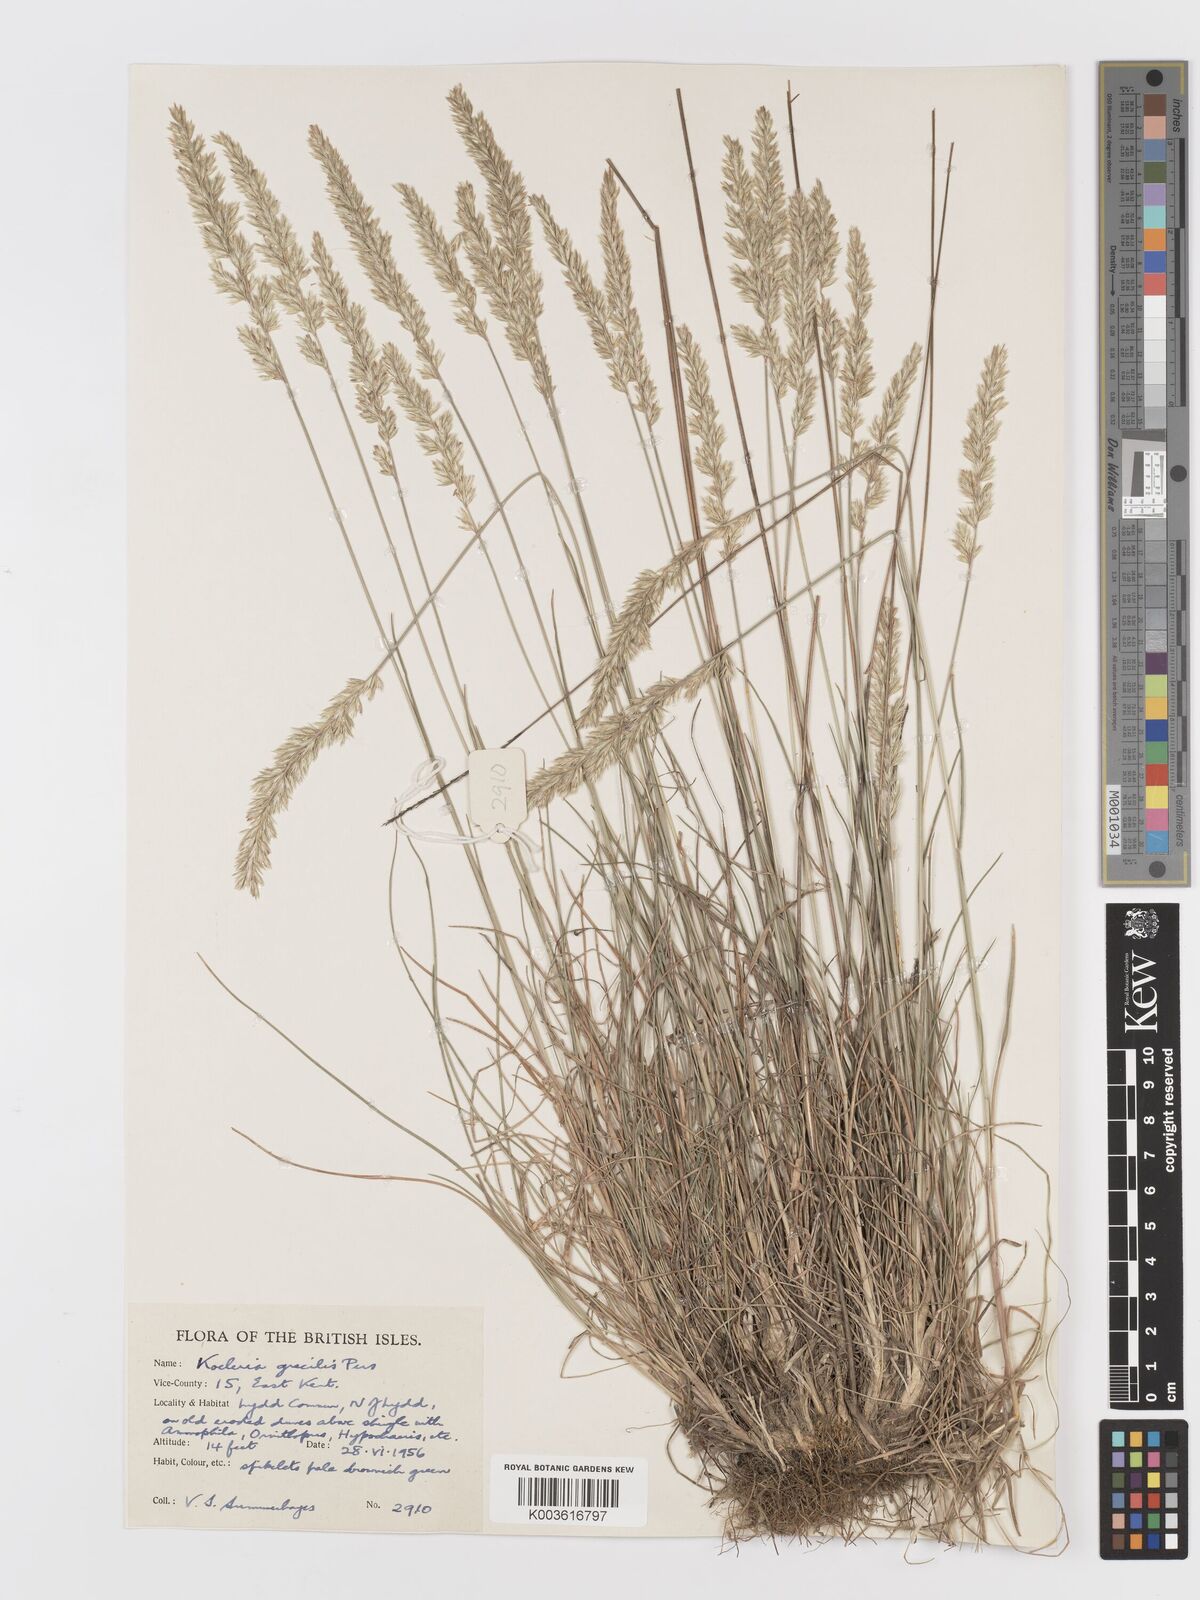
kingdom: Plantae
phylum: Tracheophyta
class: Liliopsida
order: Poales
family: Poaceae
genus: Koeleria
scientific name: Koeleria macrantha
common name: Crested hair-grass
